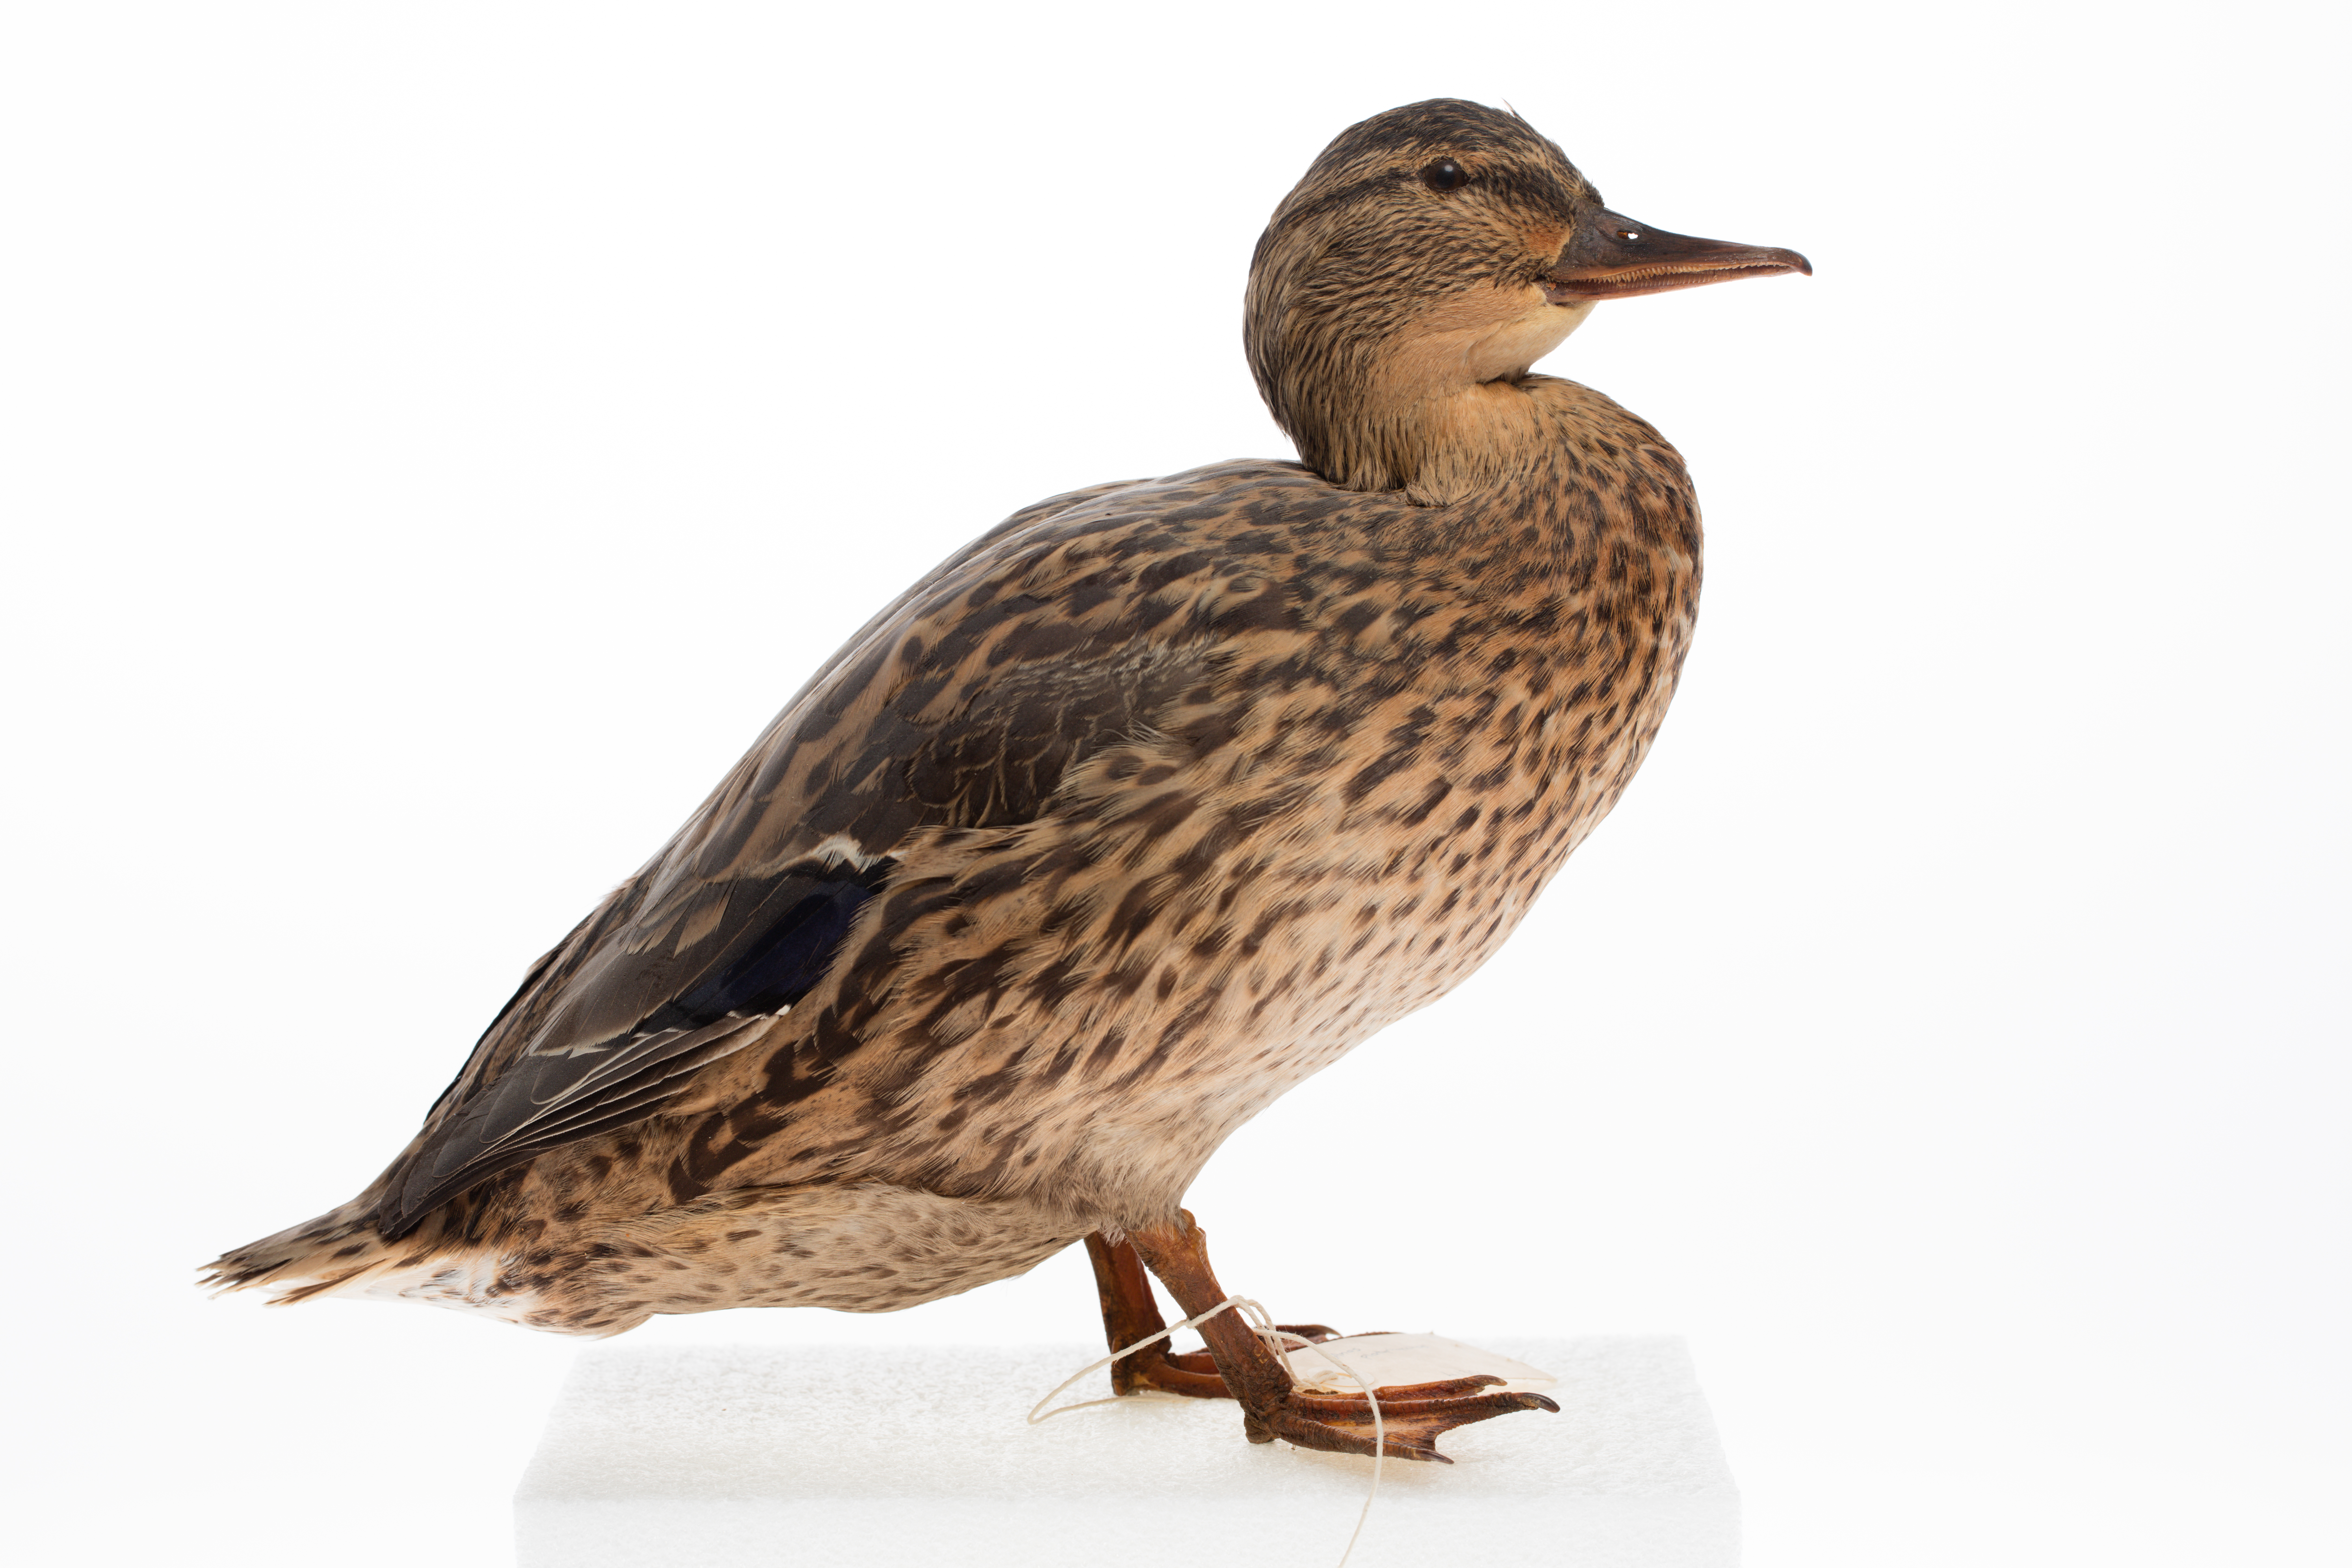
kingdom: Animalia
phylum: Chordata
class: Aves
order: Anseriformes
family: Anatidae
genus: Anas
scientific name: Anas platyrhynchos
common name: Mallard
